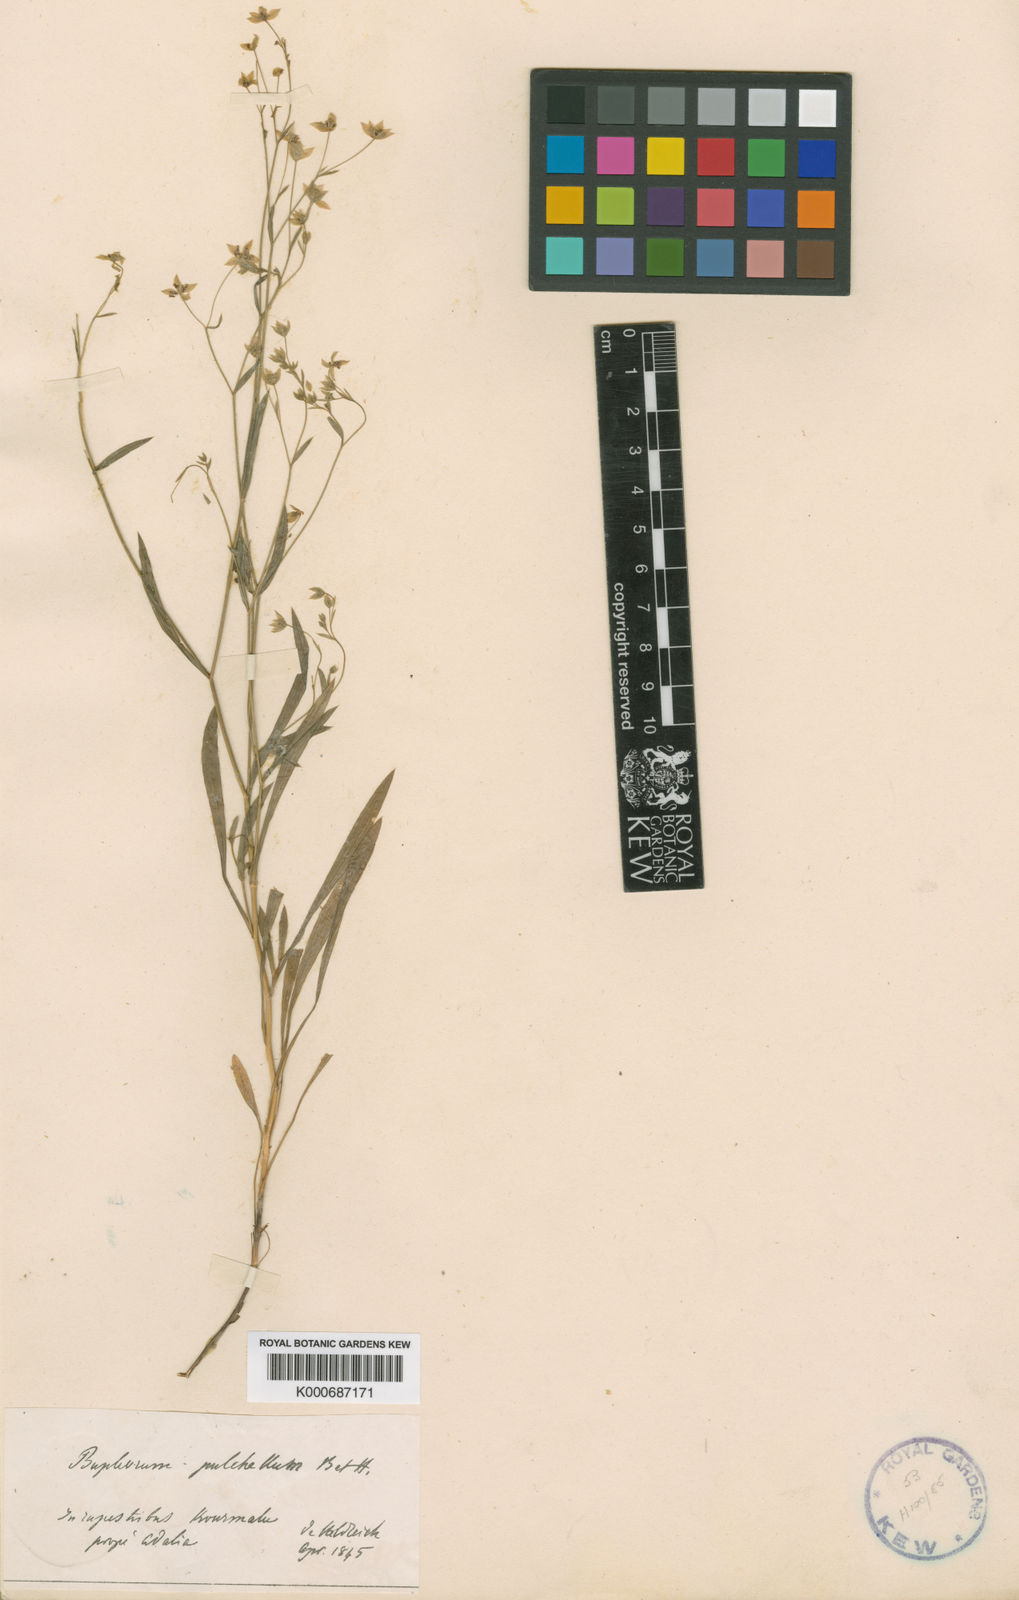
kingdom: Plantae
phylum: Tracheophyta
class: Magnoliopsida
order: Apiales
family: Apiaceae
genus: Bupleurum
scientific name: Bupleurum pulchellum
